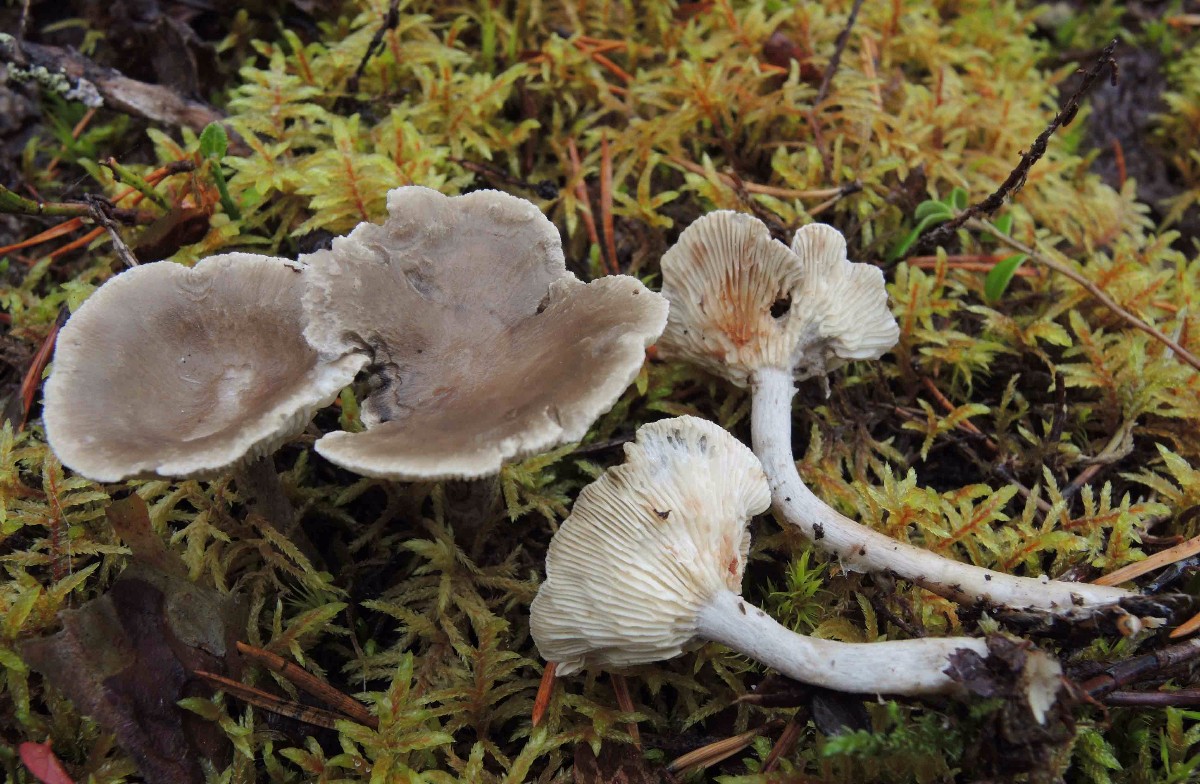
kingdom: Fungi
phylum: Basidiomycota
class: Agaricomycetes
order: Agaricales
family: Hygrophoraceae
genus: Cantharellula
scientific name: Cantharellula umbonata
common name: rødmende gaffelblad
